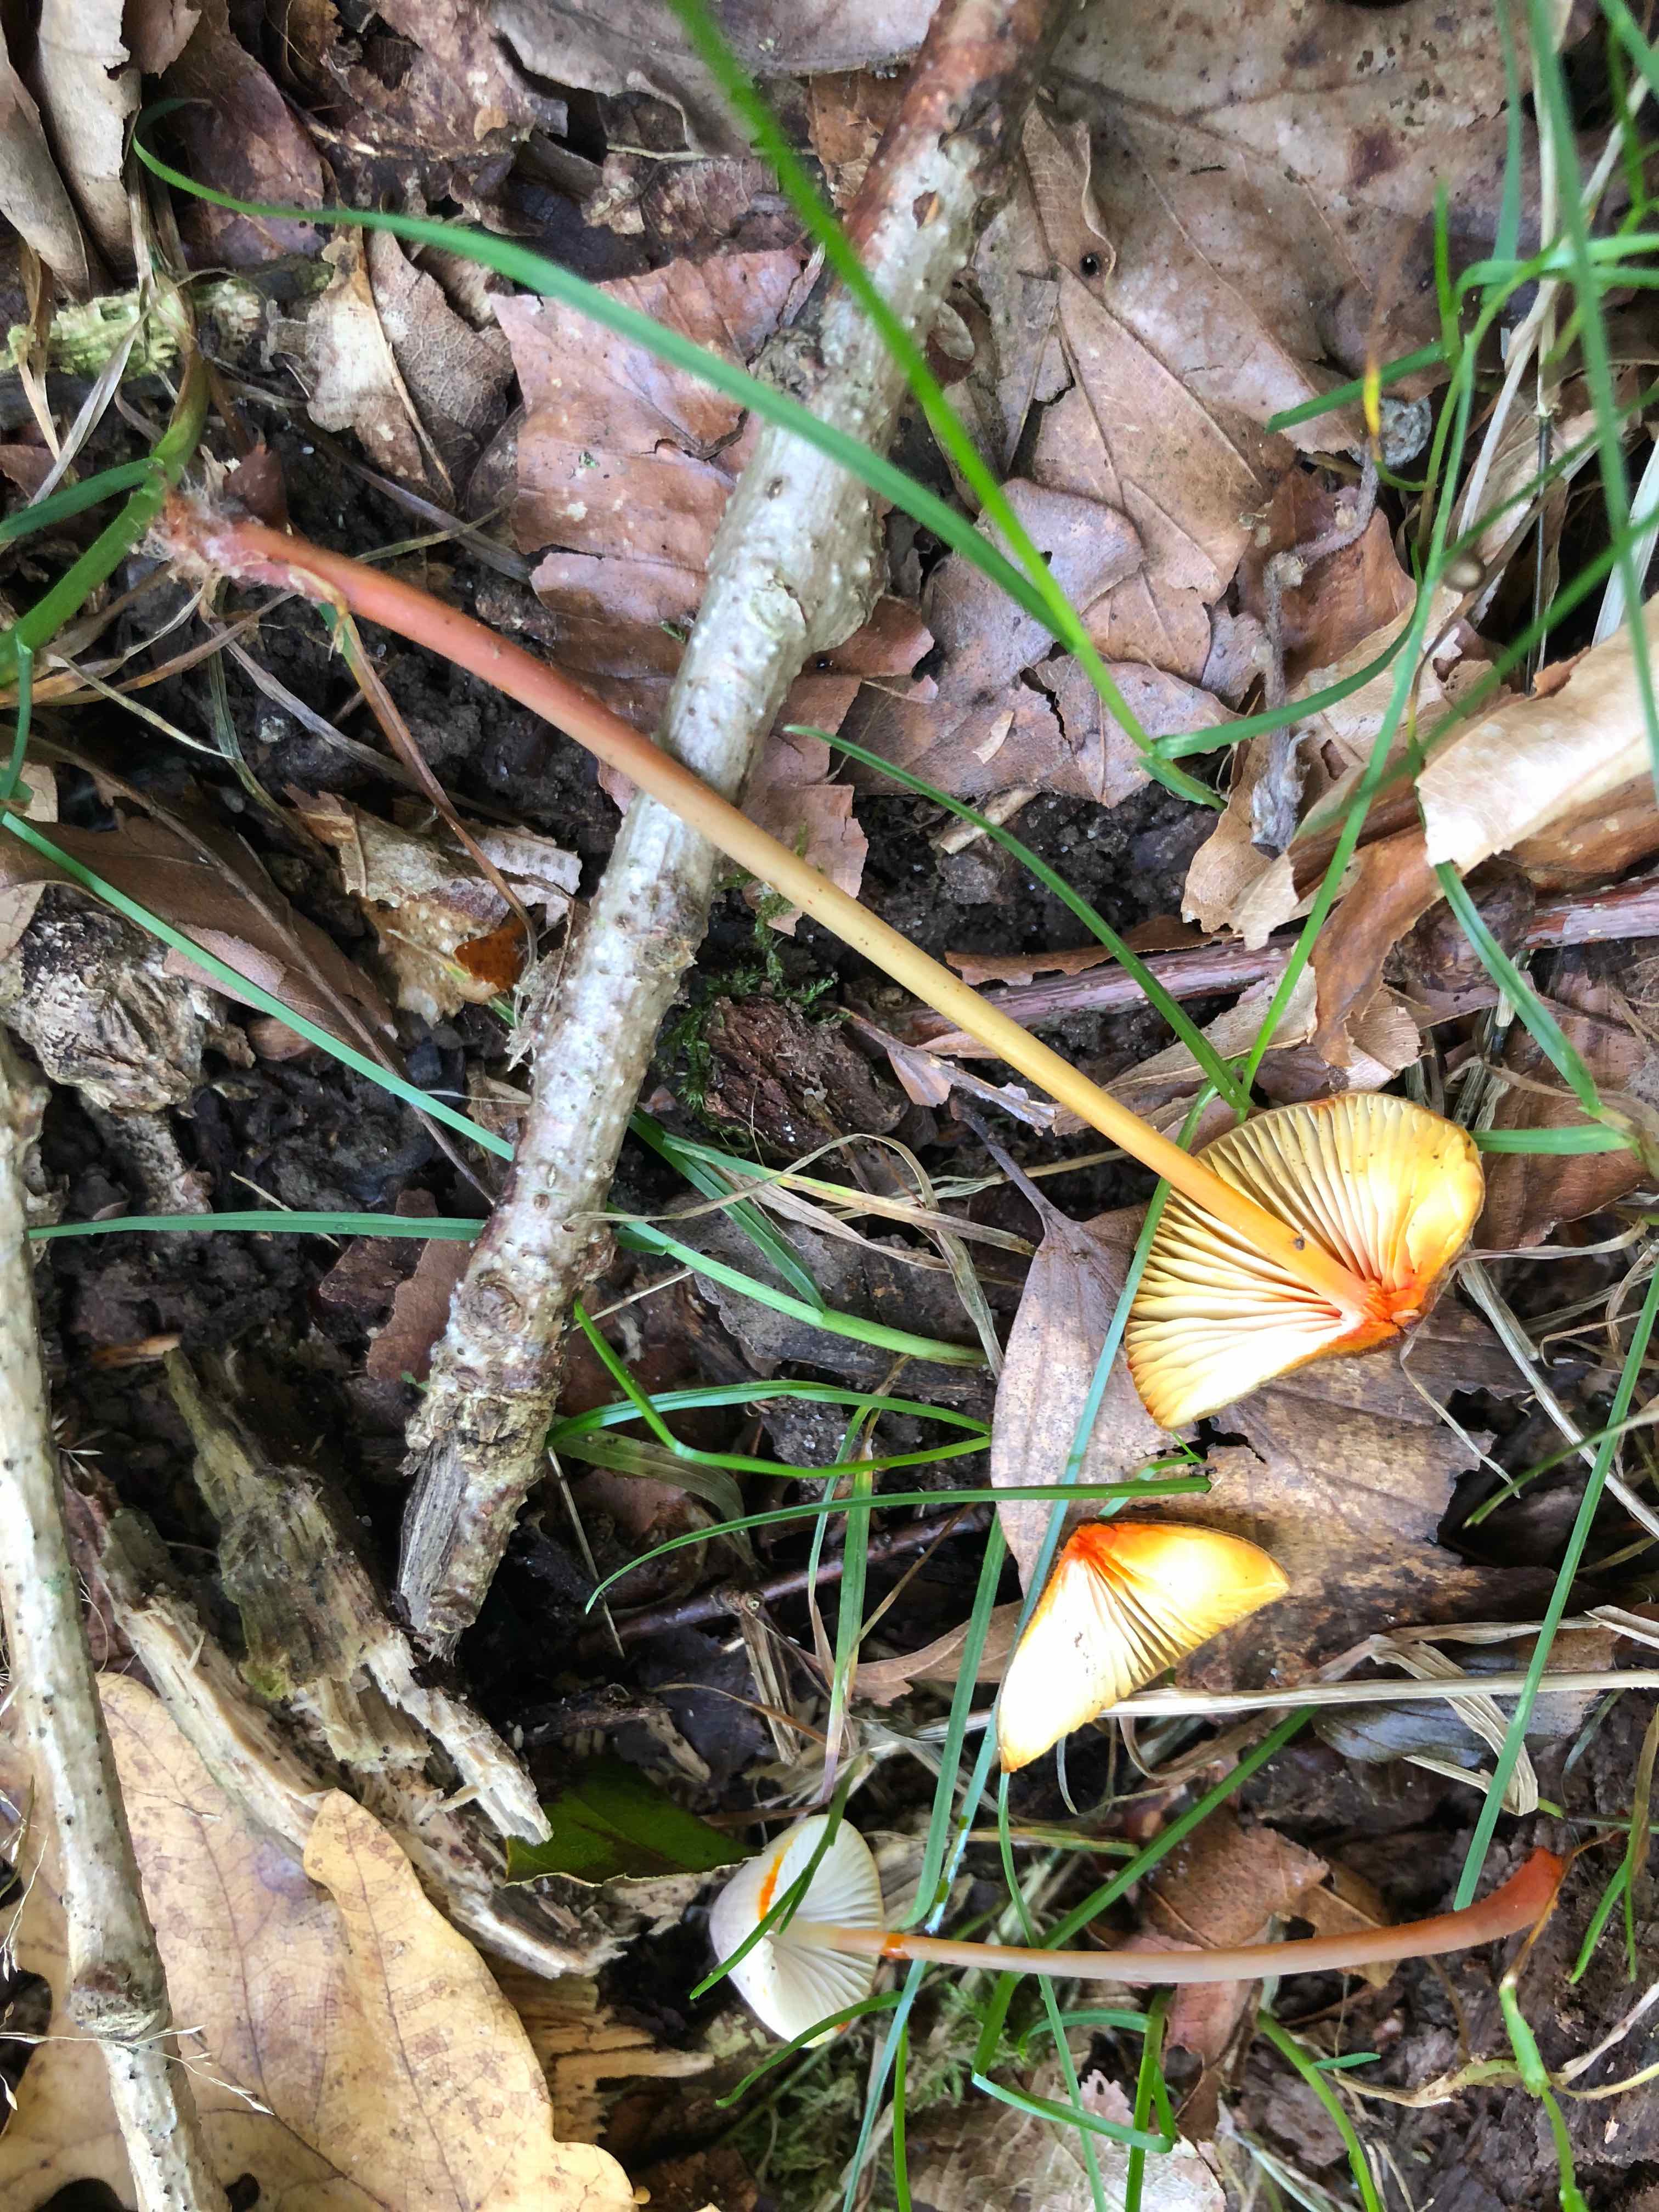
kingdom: Fungi
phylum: Basidiomycota
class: Agaricomycetes
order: Agaricales
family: Mycenaceae
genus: Mycena
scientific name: Mycena crocata
